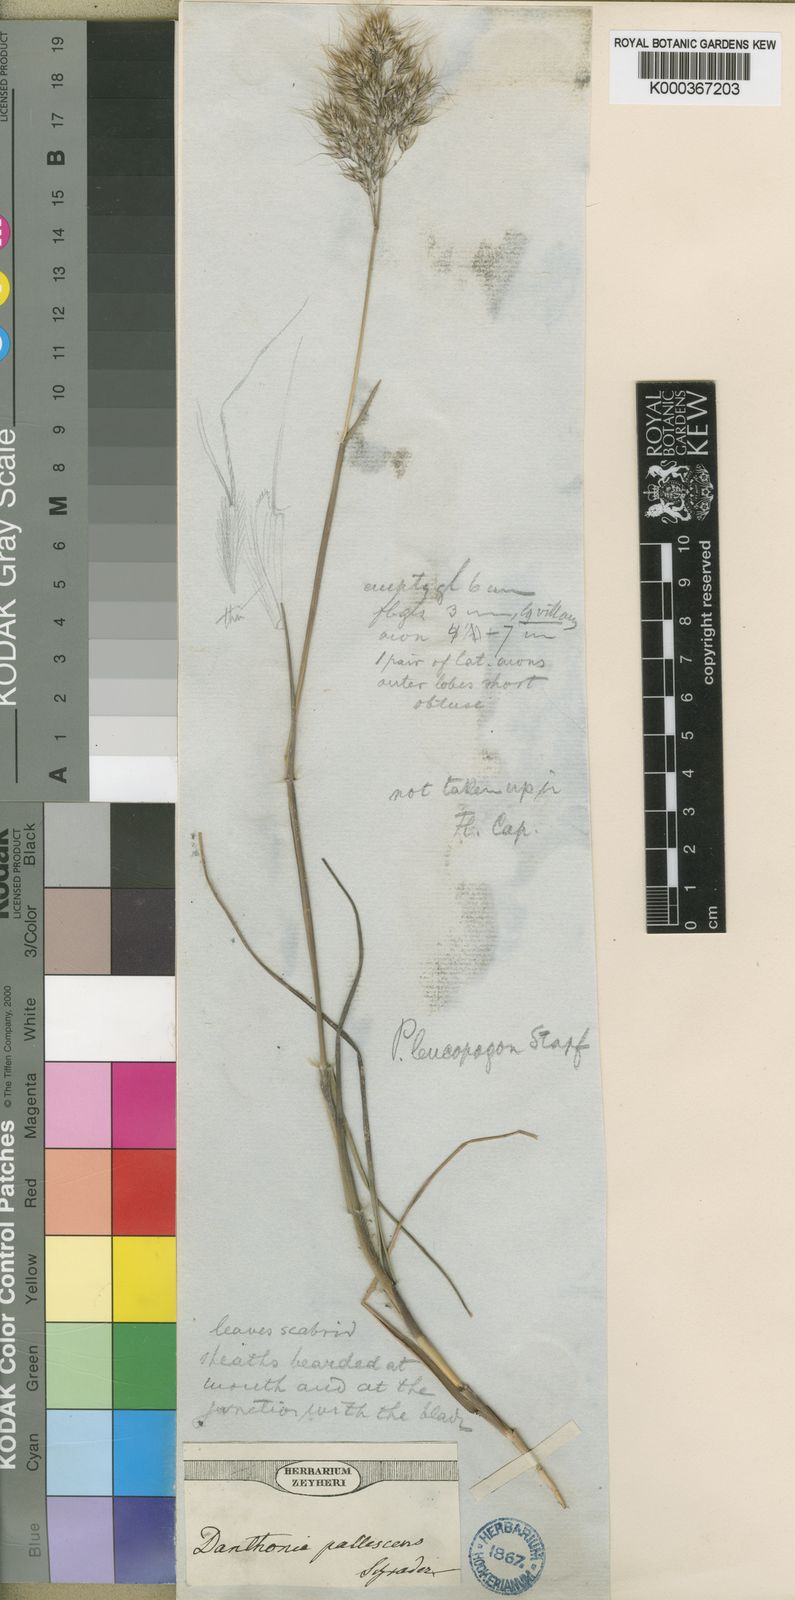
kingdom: Plantae
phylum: Tracheophyta
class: Liliopsida
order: Poales
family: Poaceae
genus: Pentameris
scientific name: Pentameris barbata
